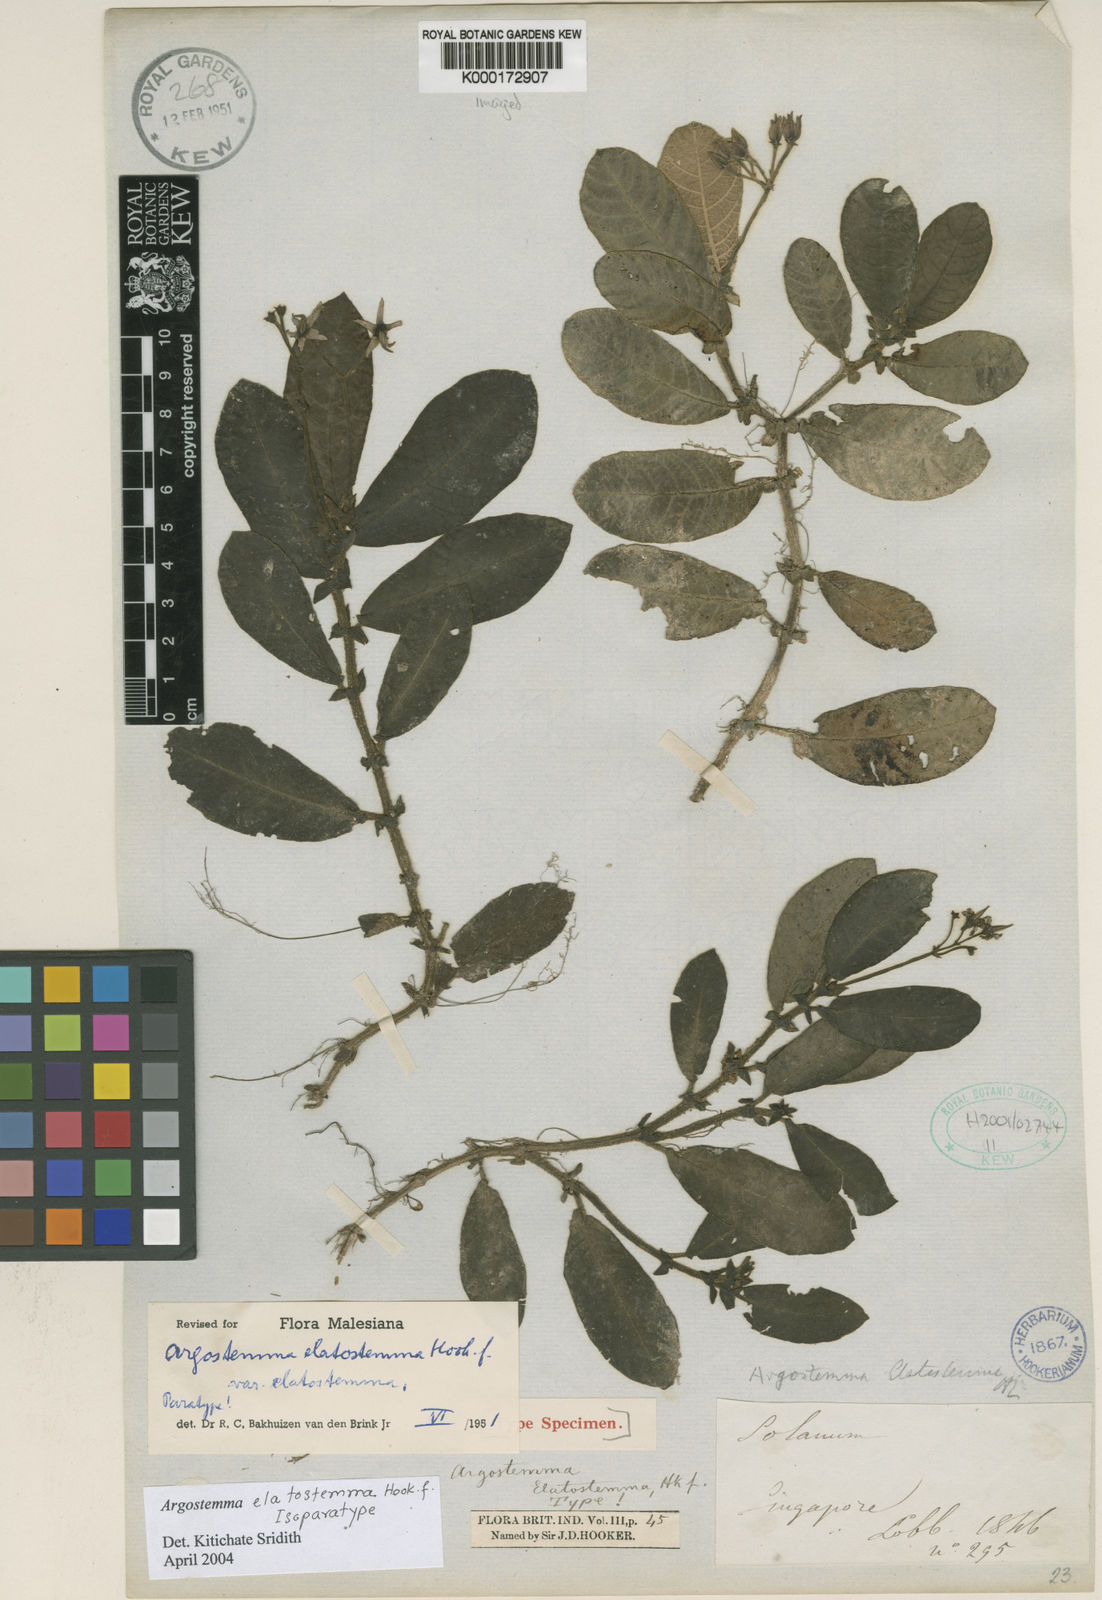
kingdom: Plantae
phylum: Tracheophyta
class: Magnoliopsida
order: Gentianales
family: Rubiaceae
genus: Argostemma
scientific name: Argostemma elatostemma
